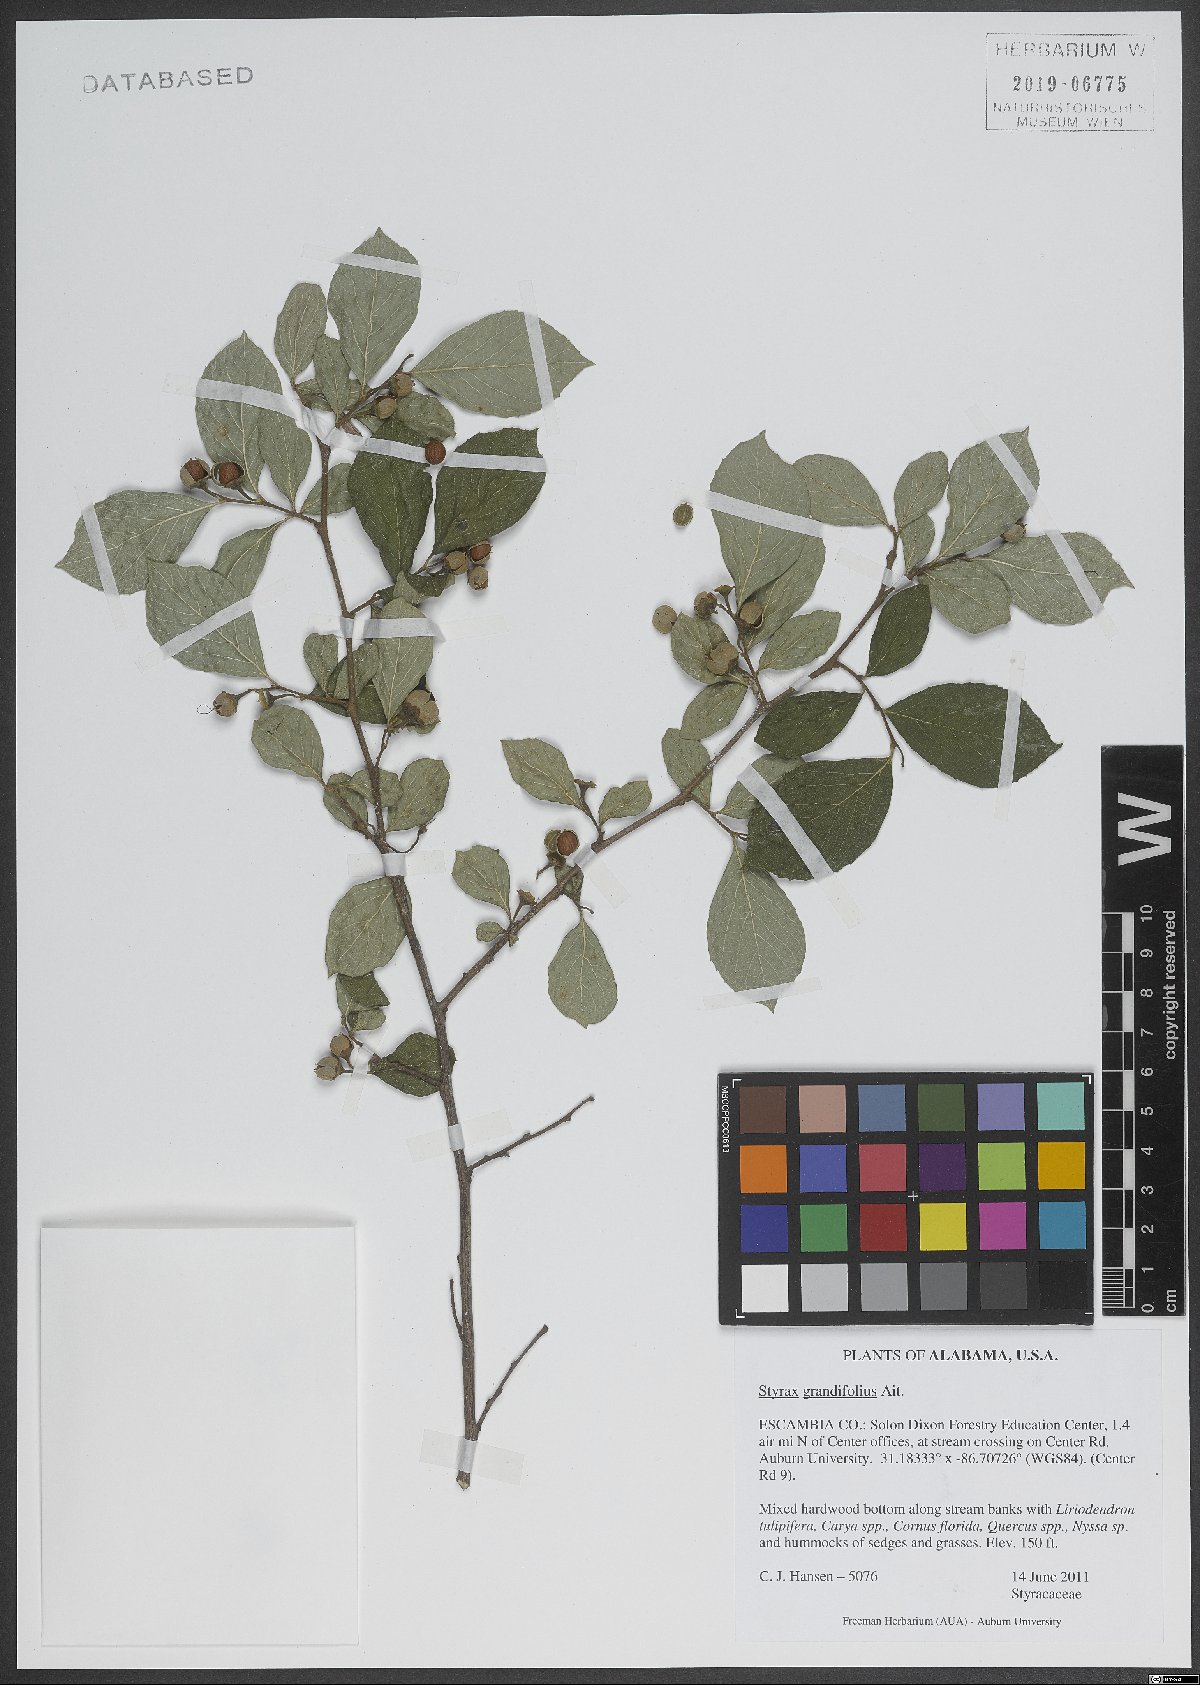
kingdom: Plantae
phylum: Tracheophyta
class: Magnoliopsida
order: Ericales
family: Styracaceae
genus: Styrax
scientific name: Styrax grandifolius
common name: Big-leaf snowbell
